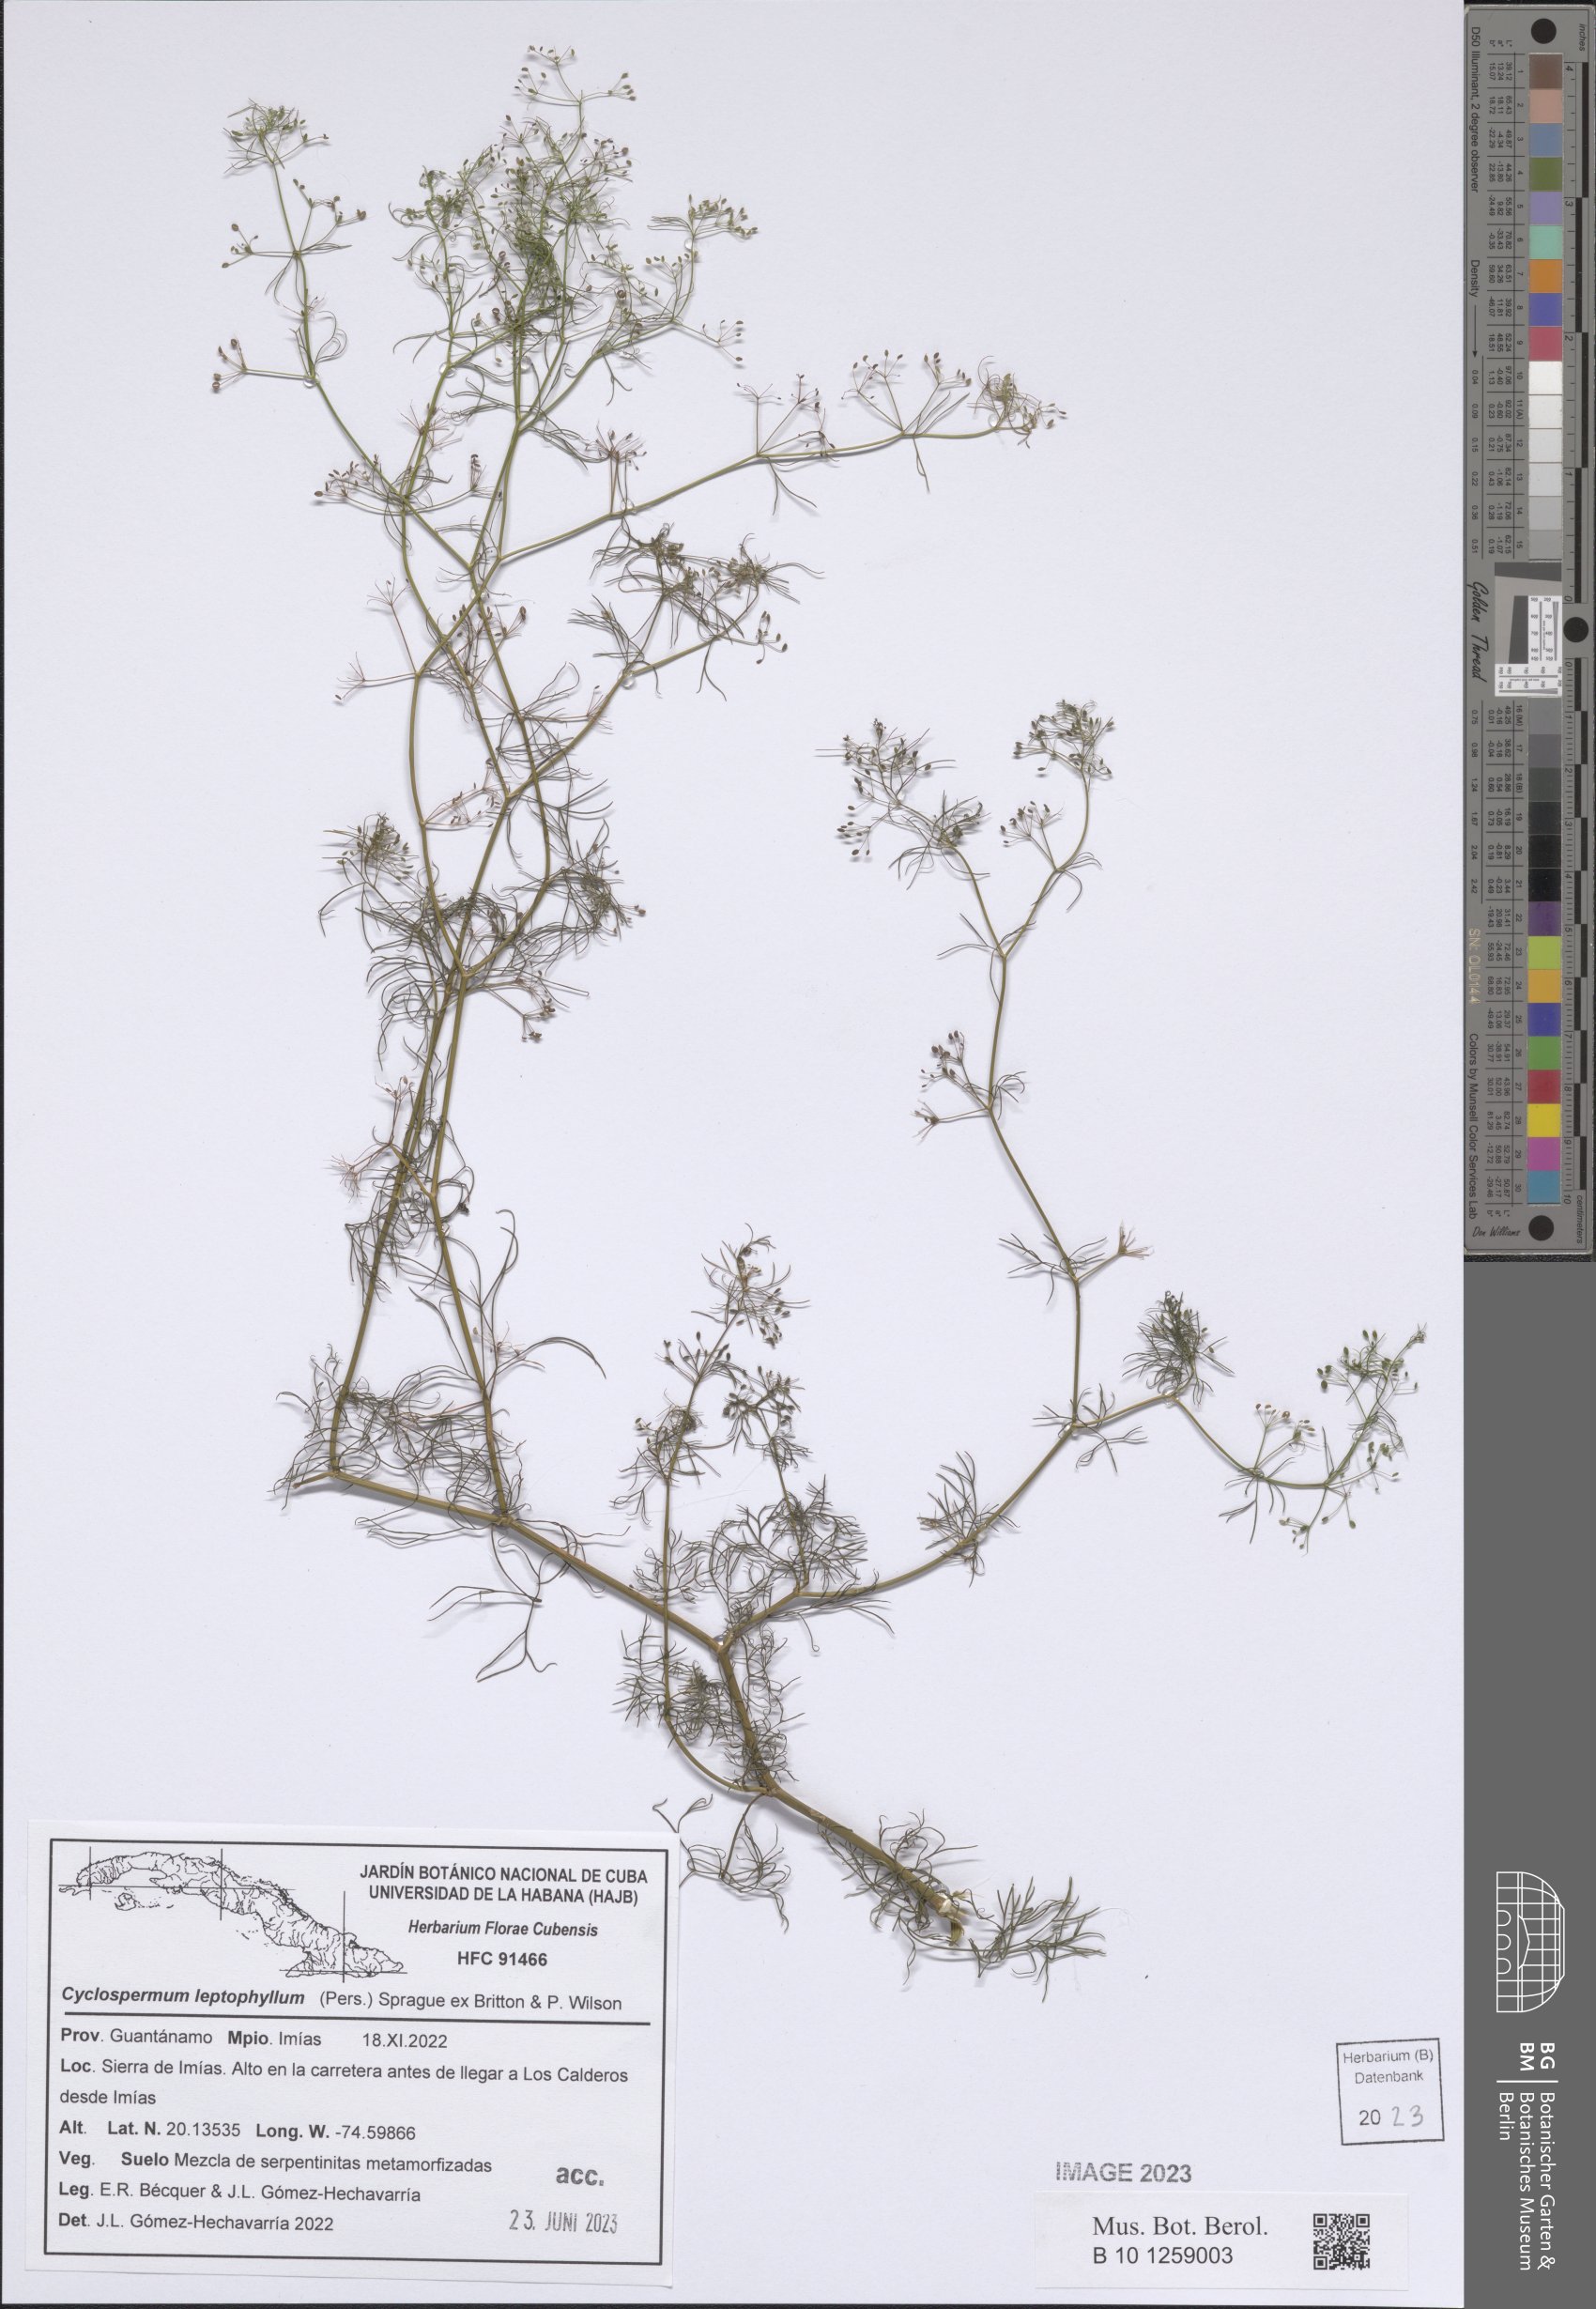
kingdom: Plantae
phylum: Tracheophyta
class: Magnoliopsida
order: Apiales
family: Apiaceae
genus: Cyclospermum
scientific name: Cyclospermum leptophyllum
